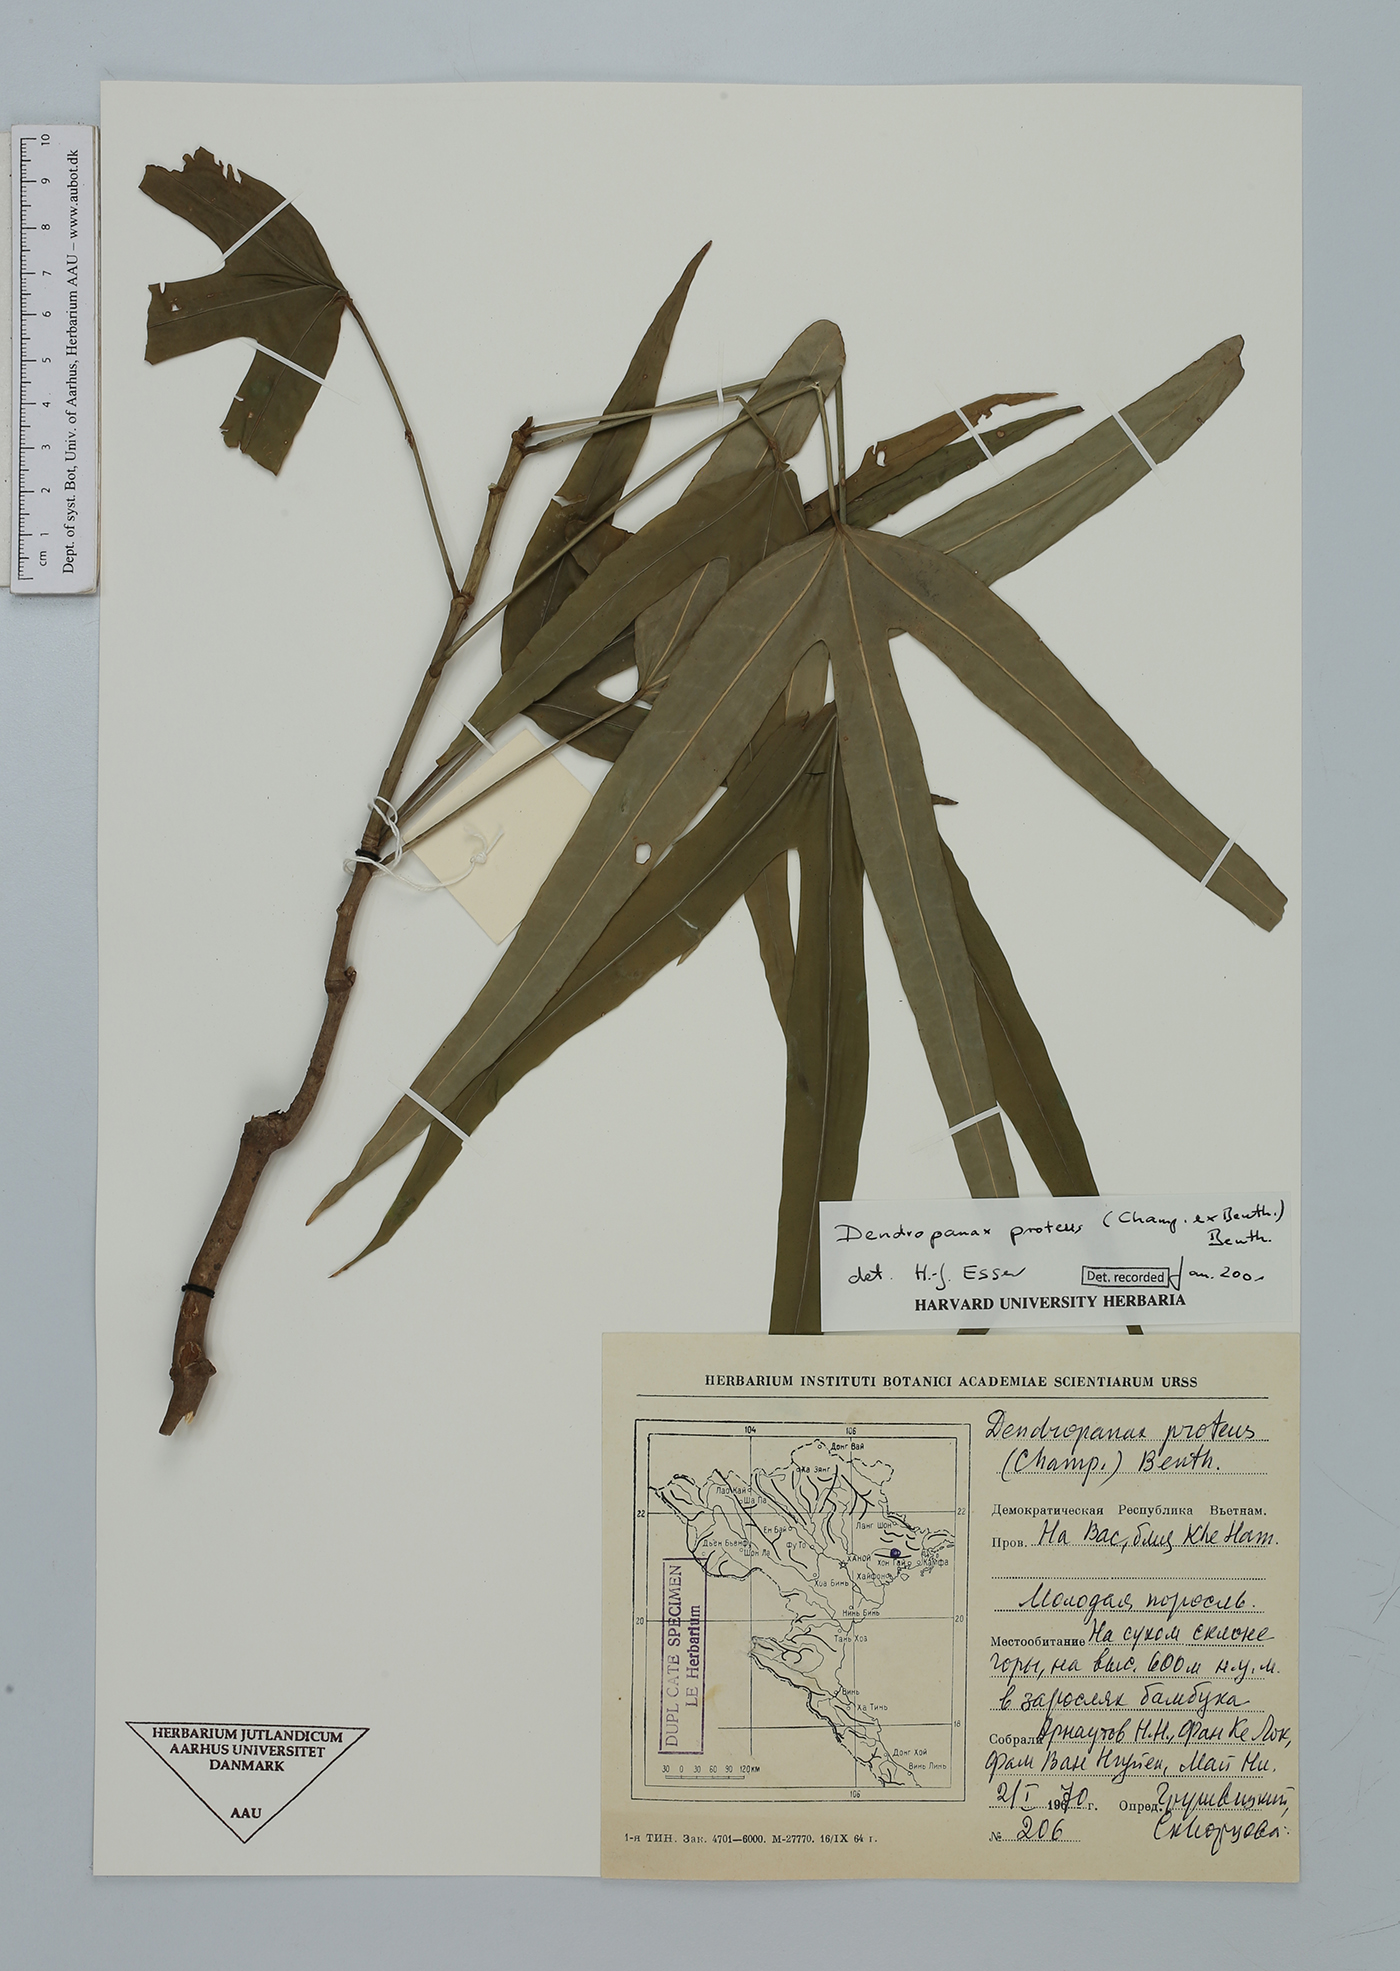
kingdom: Plantae
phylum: Tracheophyta
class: Magnoliopsida
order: Apiales
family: Araliaceae
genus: Dendropanax
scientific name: Dendropanax proteus
